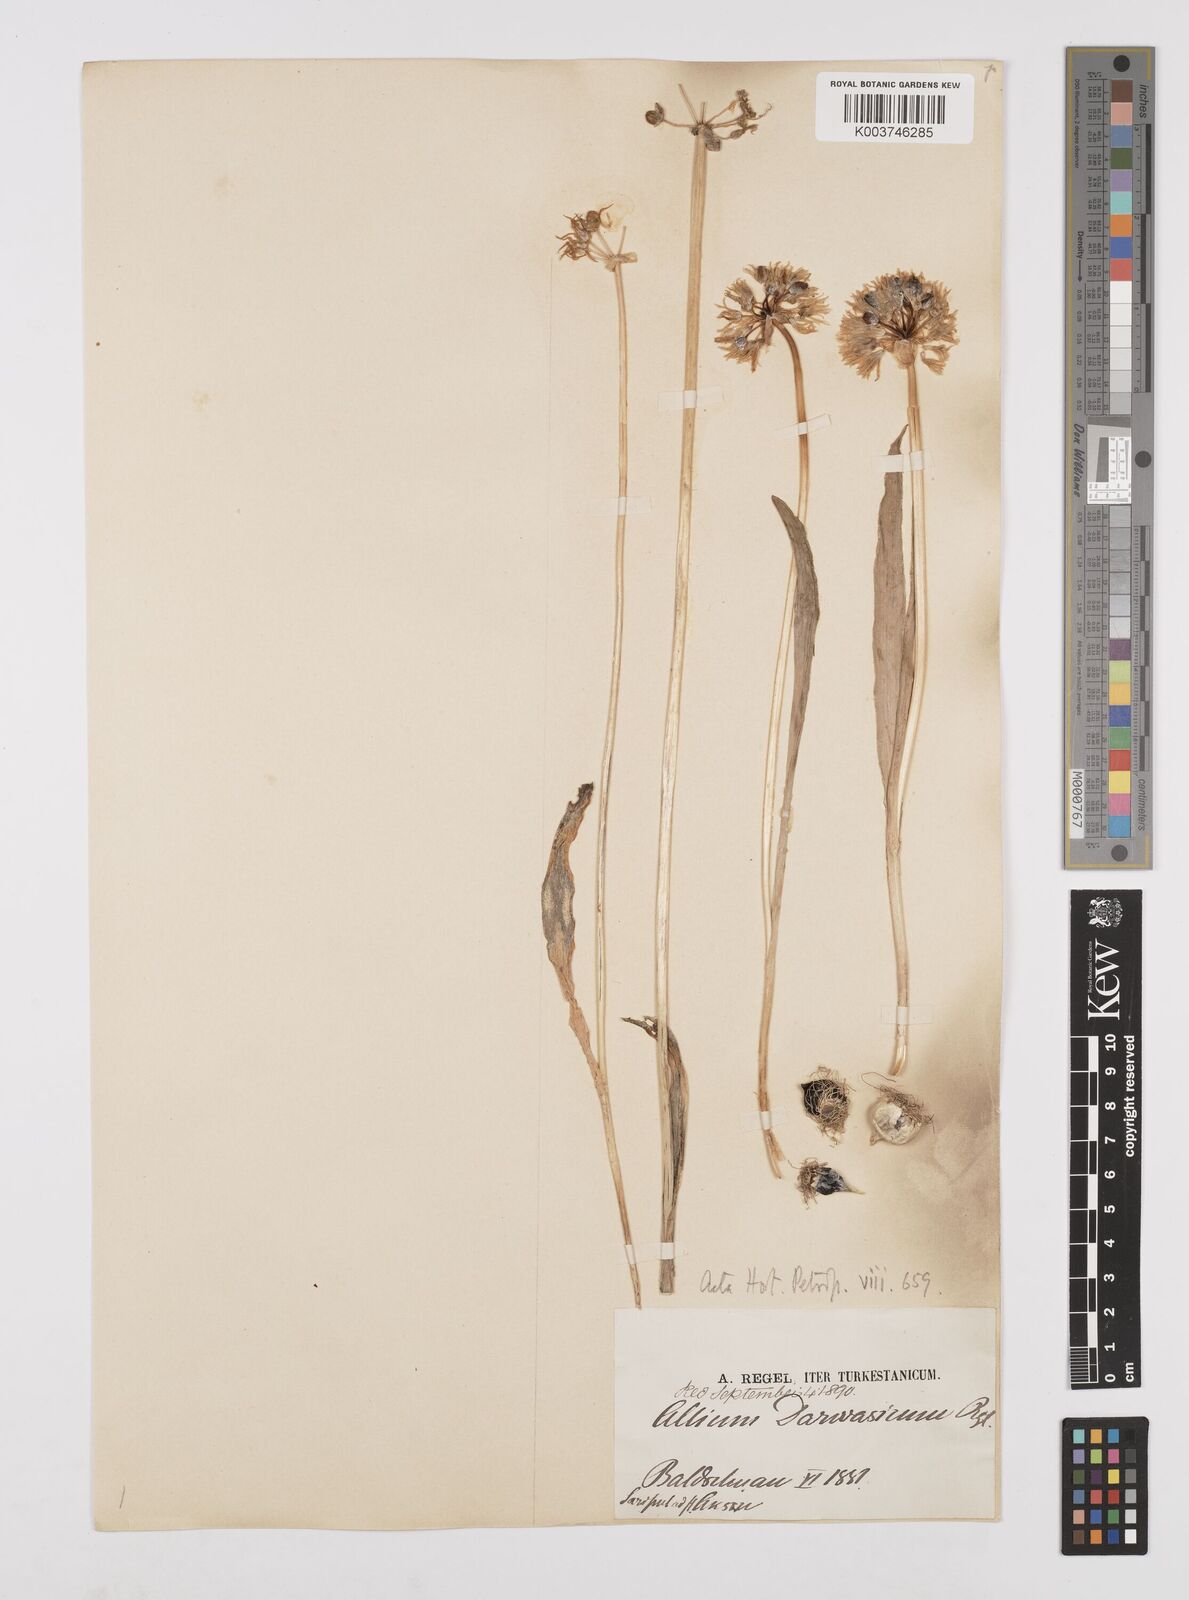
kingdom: Plantae
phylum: Tracheophyta
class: Liliopsida
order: Asparagales
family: Amaryllidaceae
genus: Allium
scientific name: Allium darwasicum
